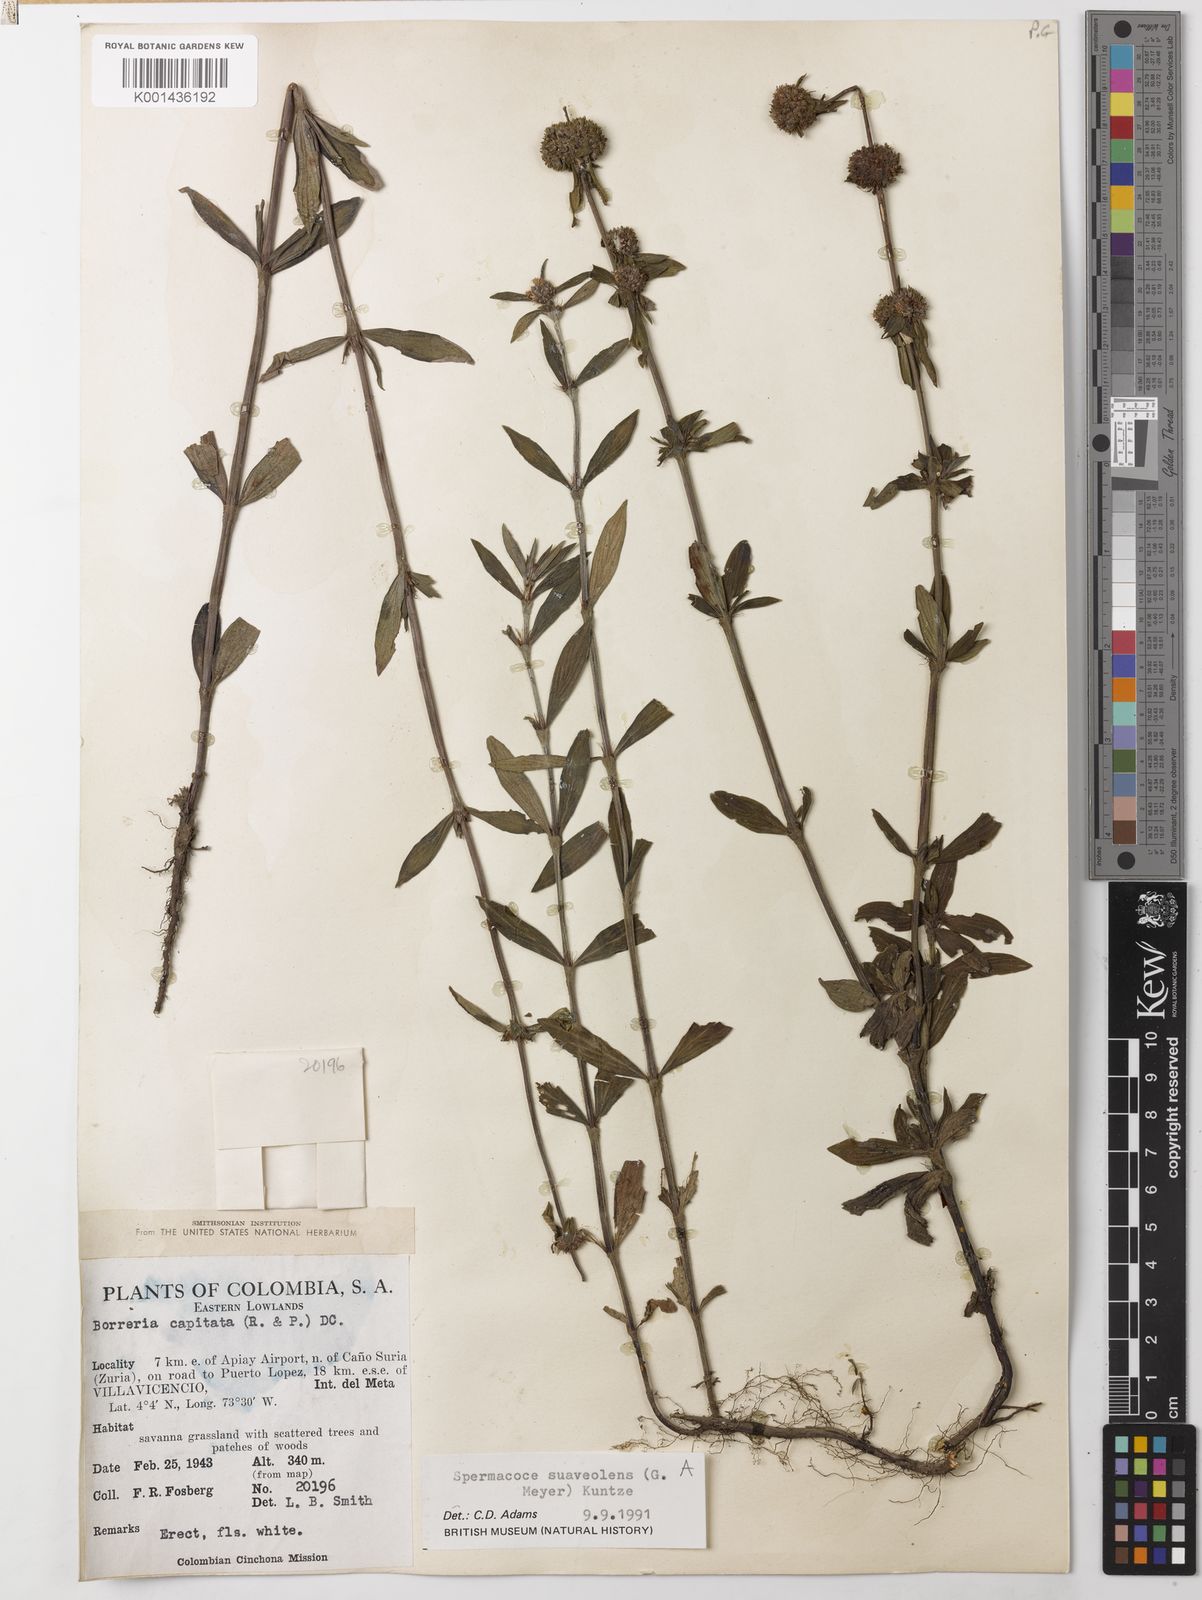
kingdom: Plantae
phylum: Tracheophyta
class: Magnoliopsida
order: Gentianales
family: Rubiaceae
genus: Spermacoce
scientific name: Spermacoce suaveolens
